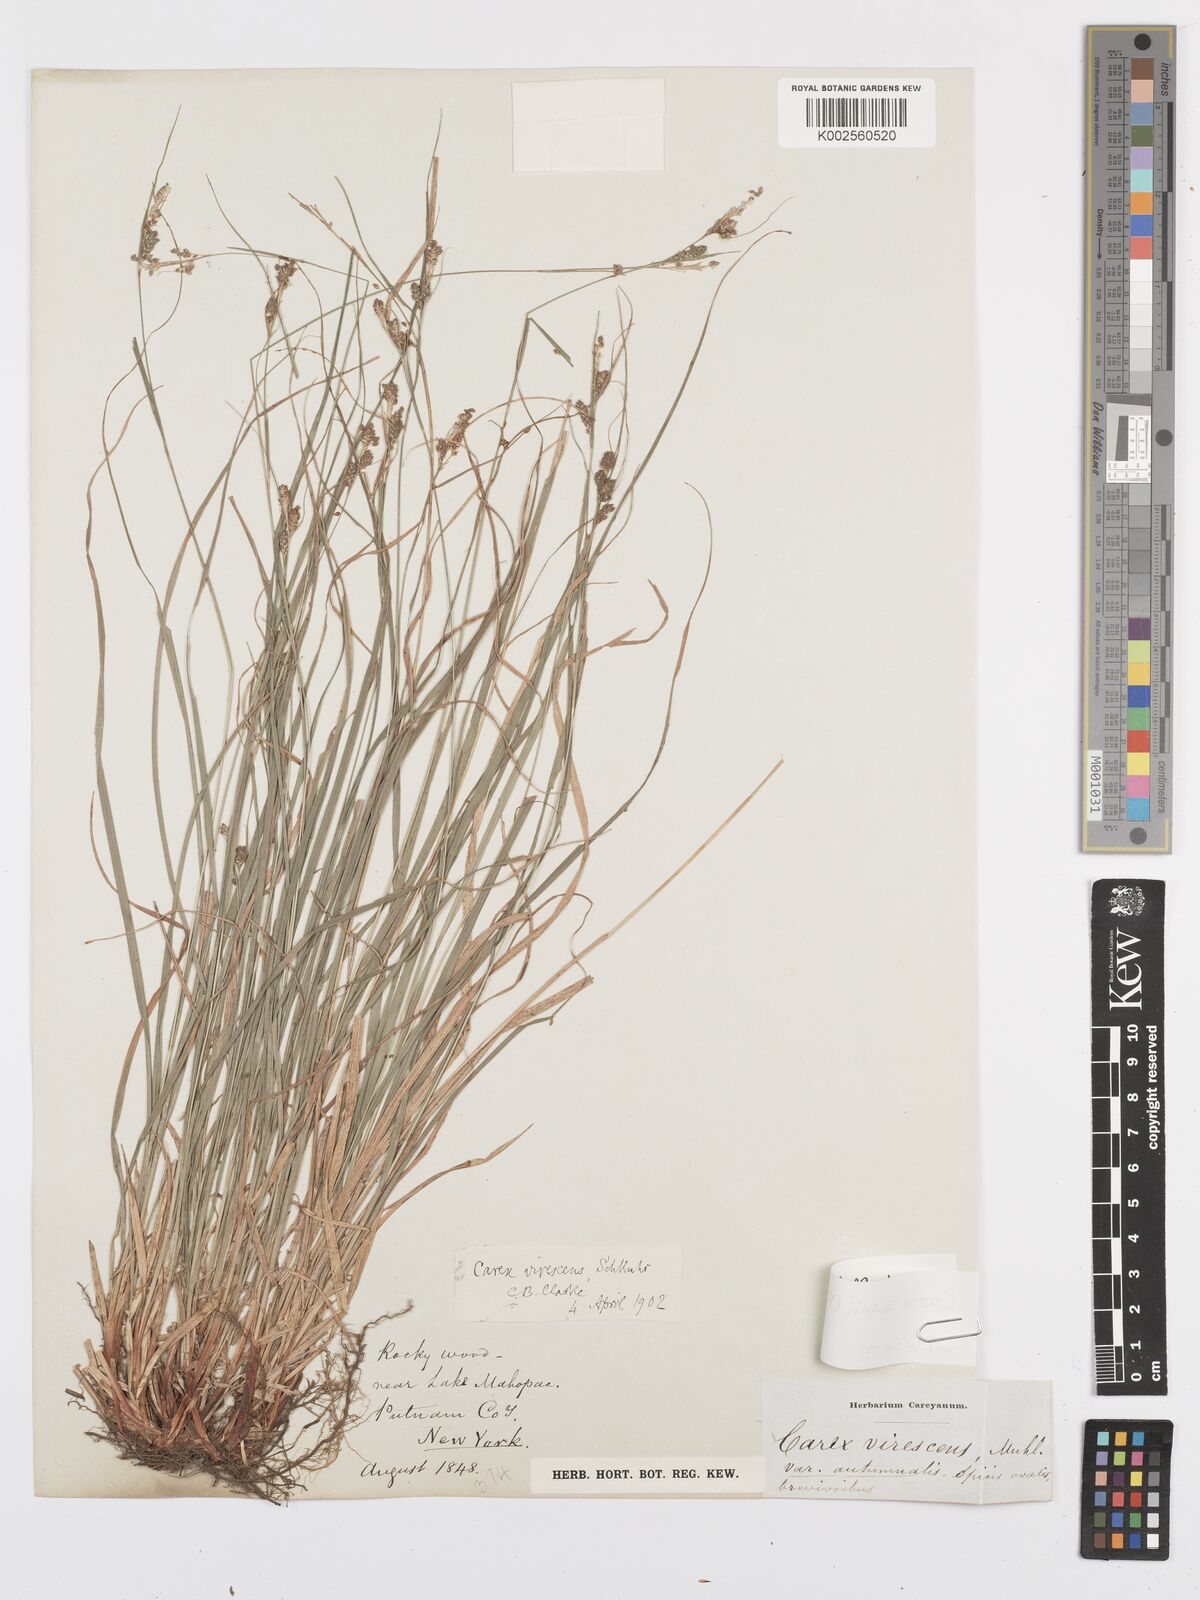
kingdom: Plantae
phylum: Tracheophyta
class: Liliopsida
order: Poales
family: Cyperaceae
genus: Carex
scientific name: Carex swanii
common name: Downy green sedge
